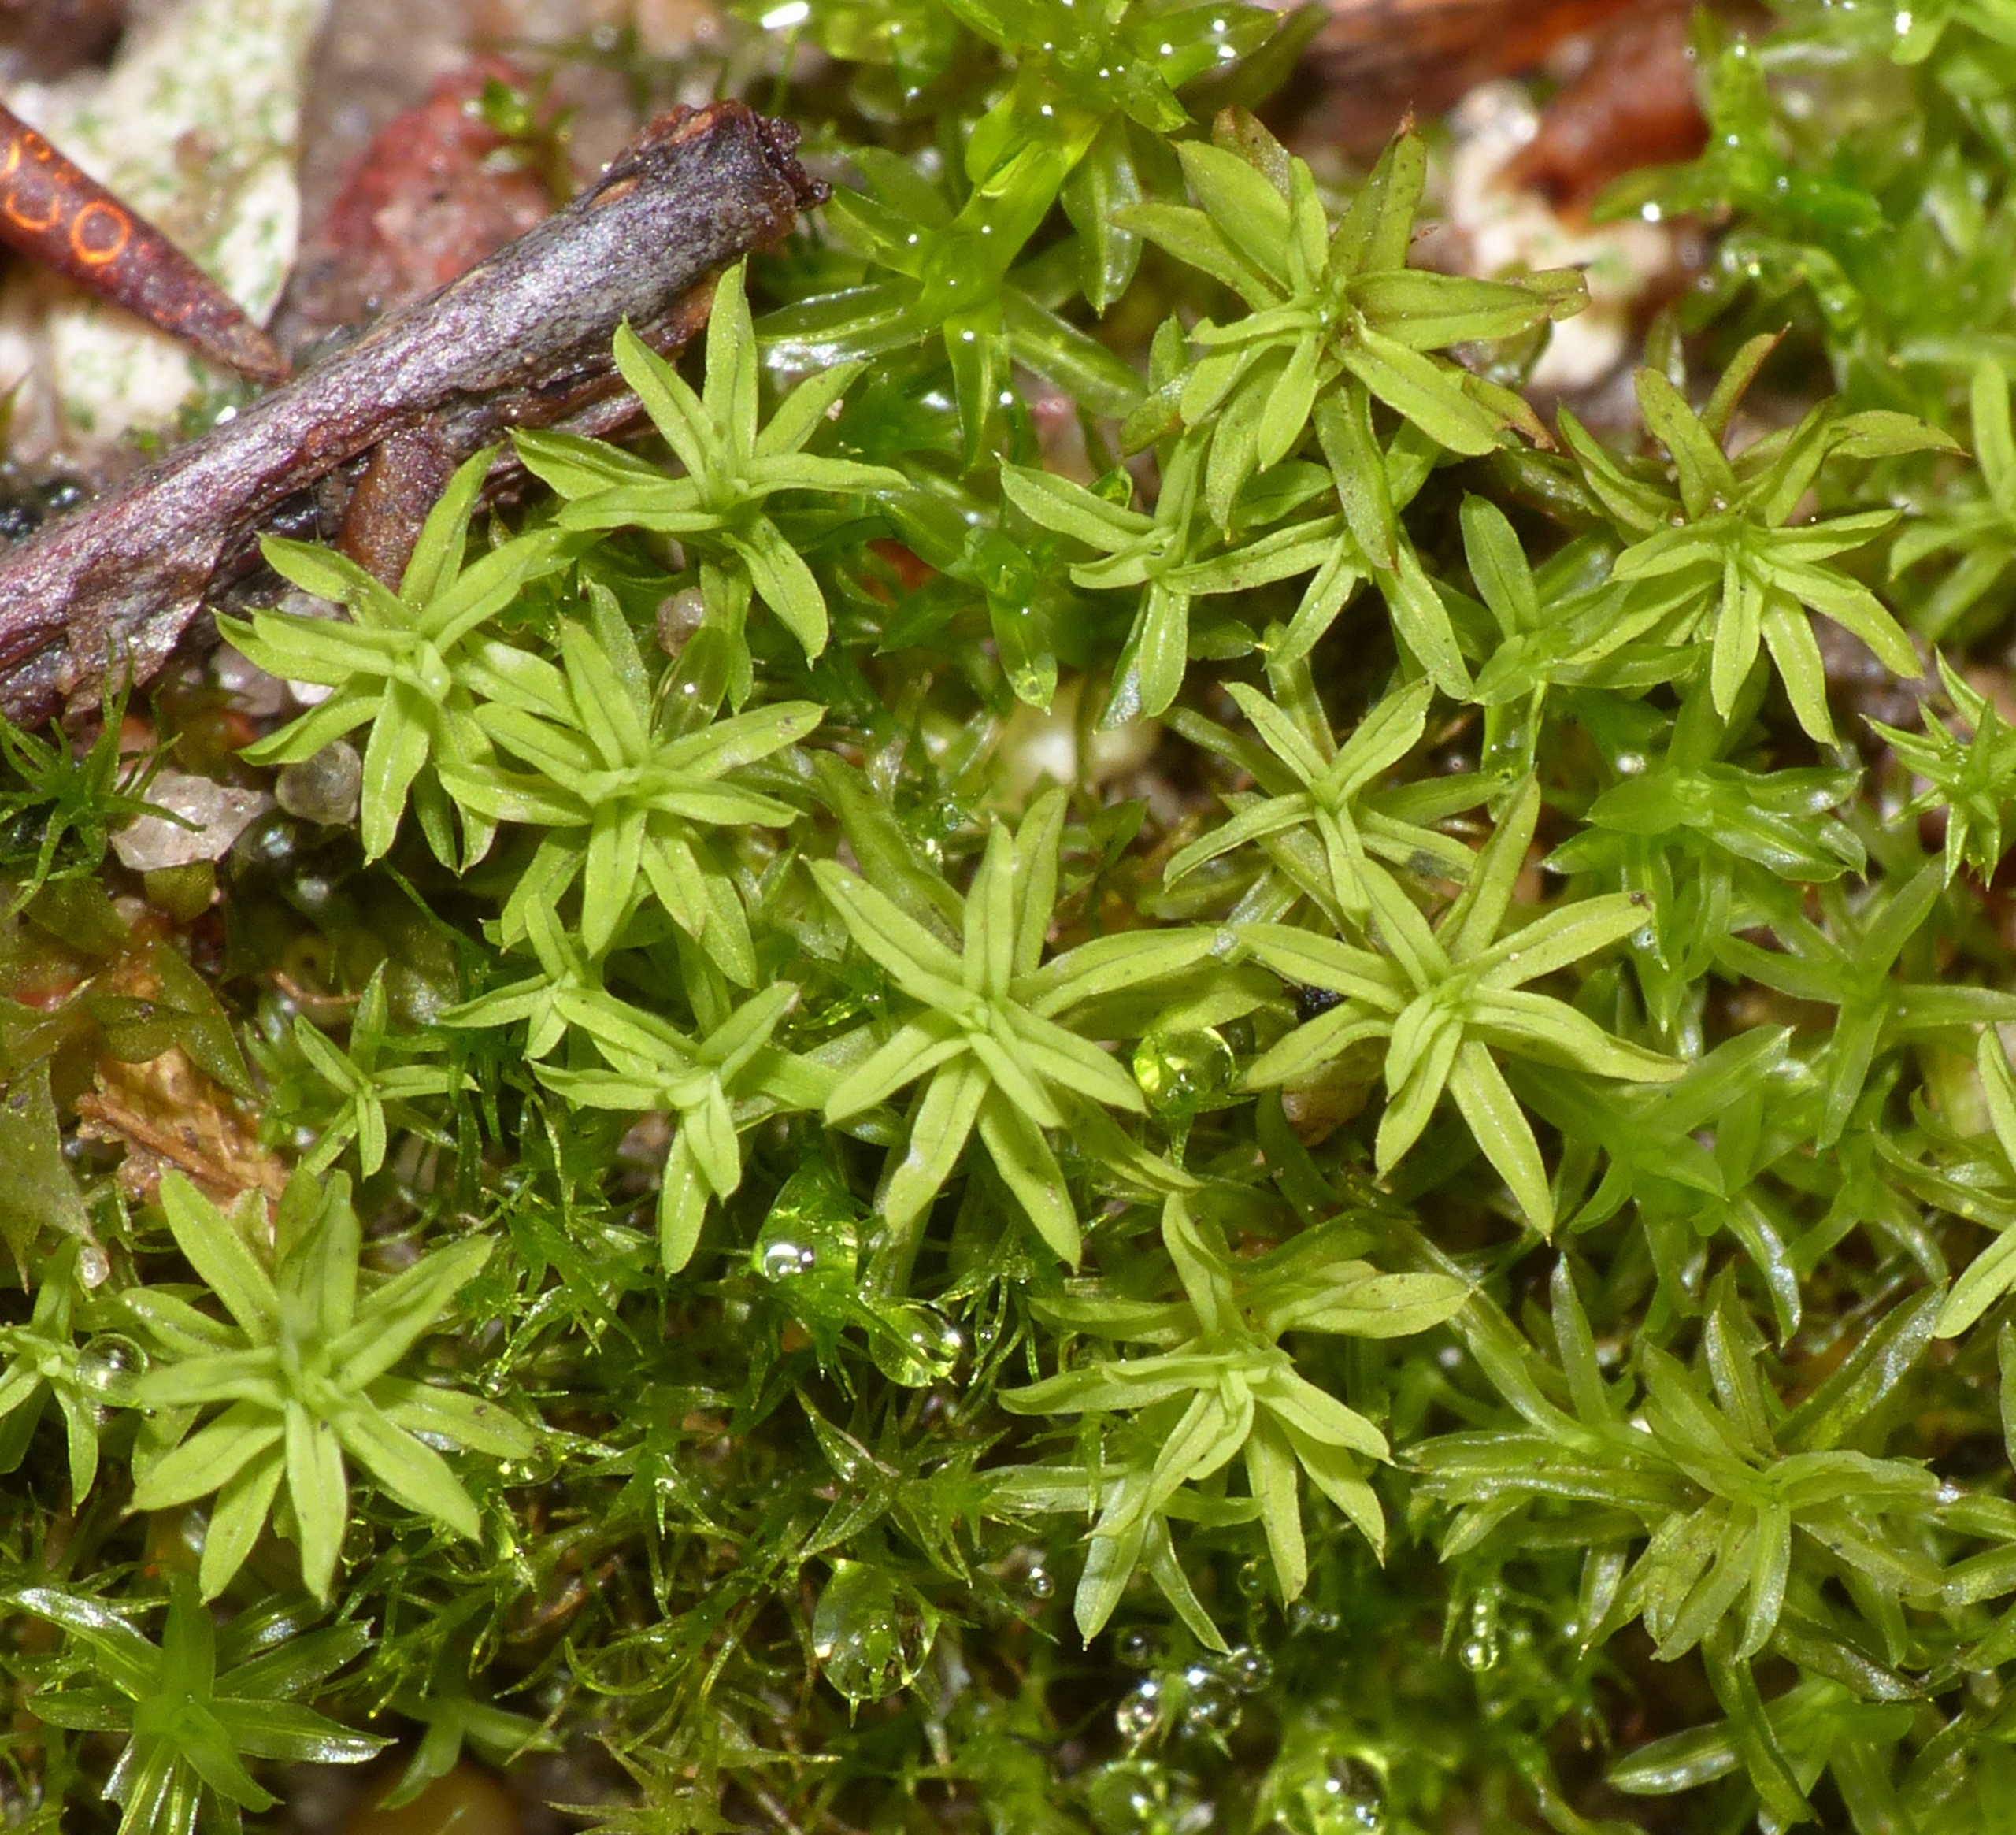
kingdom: Plantae
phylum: Bryophyta
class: Bryopsida
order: Pottiales
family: Pottiaceae
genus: Barbula
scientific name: Barbula unguiculata
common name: Almindelig skægtand
